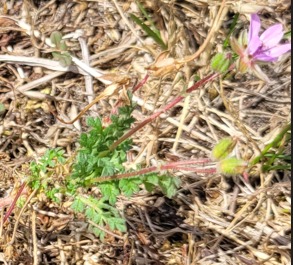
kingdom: Plantae
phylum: Tracheophyta
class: Magnoliopsida
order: Geraniales
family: Geraniaceae
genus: Erodium
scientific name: Erodium cicutarium
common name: Hejrenæb
